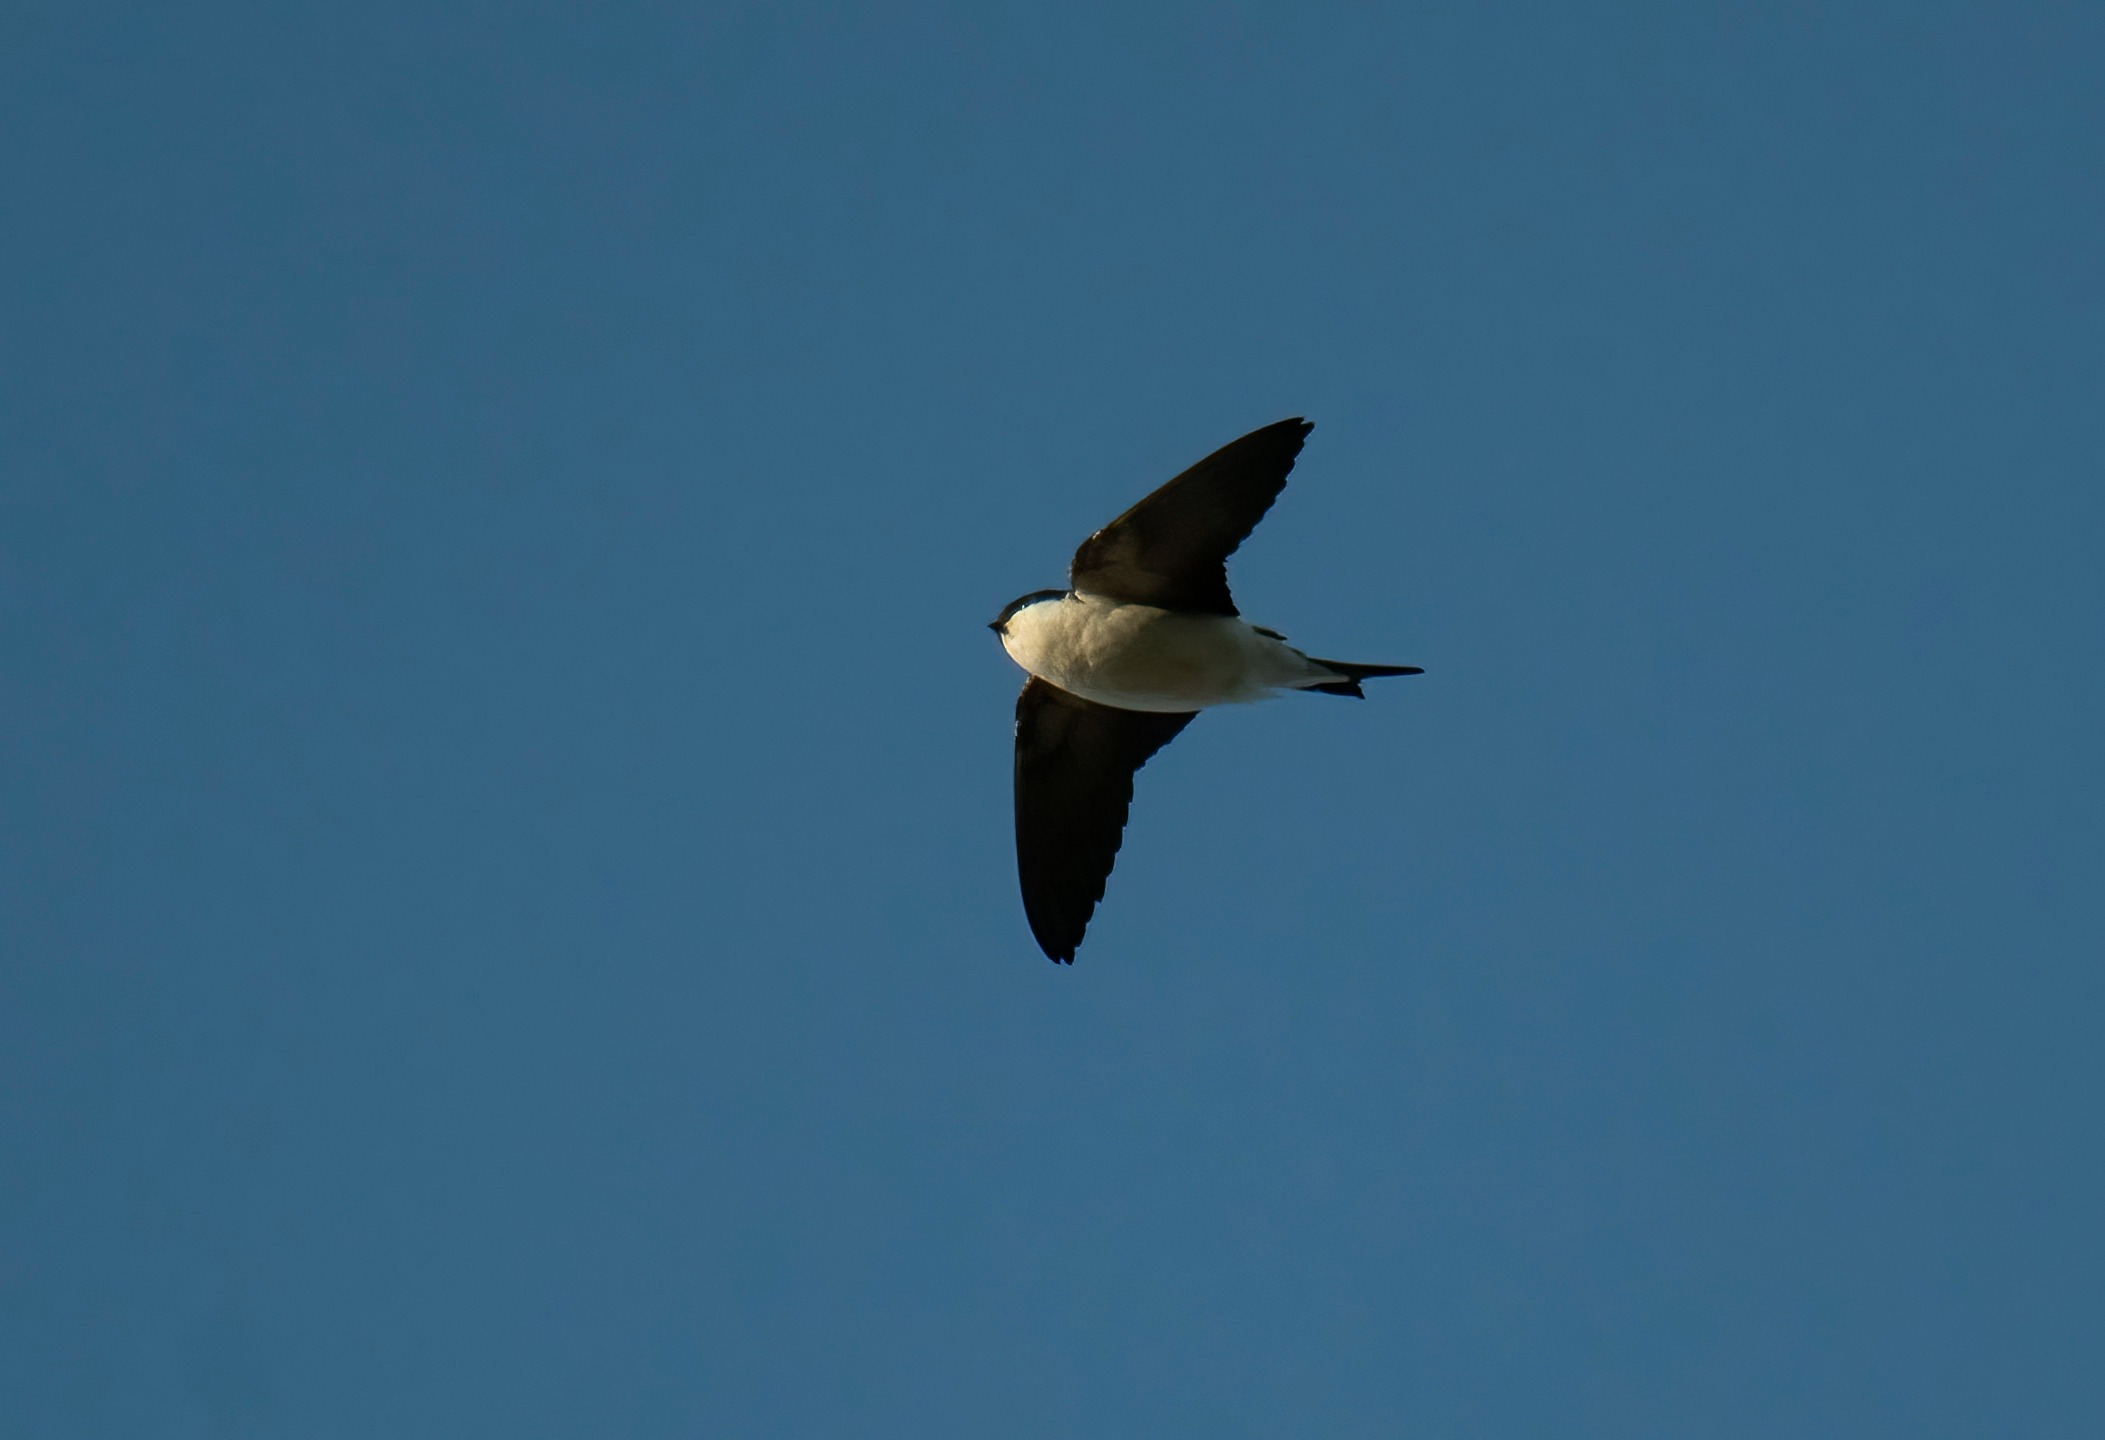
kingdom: Animalia
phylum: Chordata
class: Aves
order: Passeriformes
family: Hirundinidae
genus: Delichon
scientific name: Delichon urbicum
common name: Bysvale
